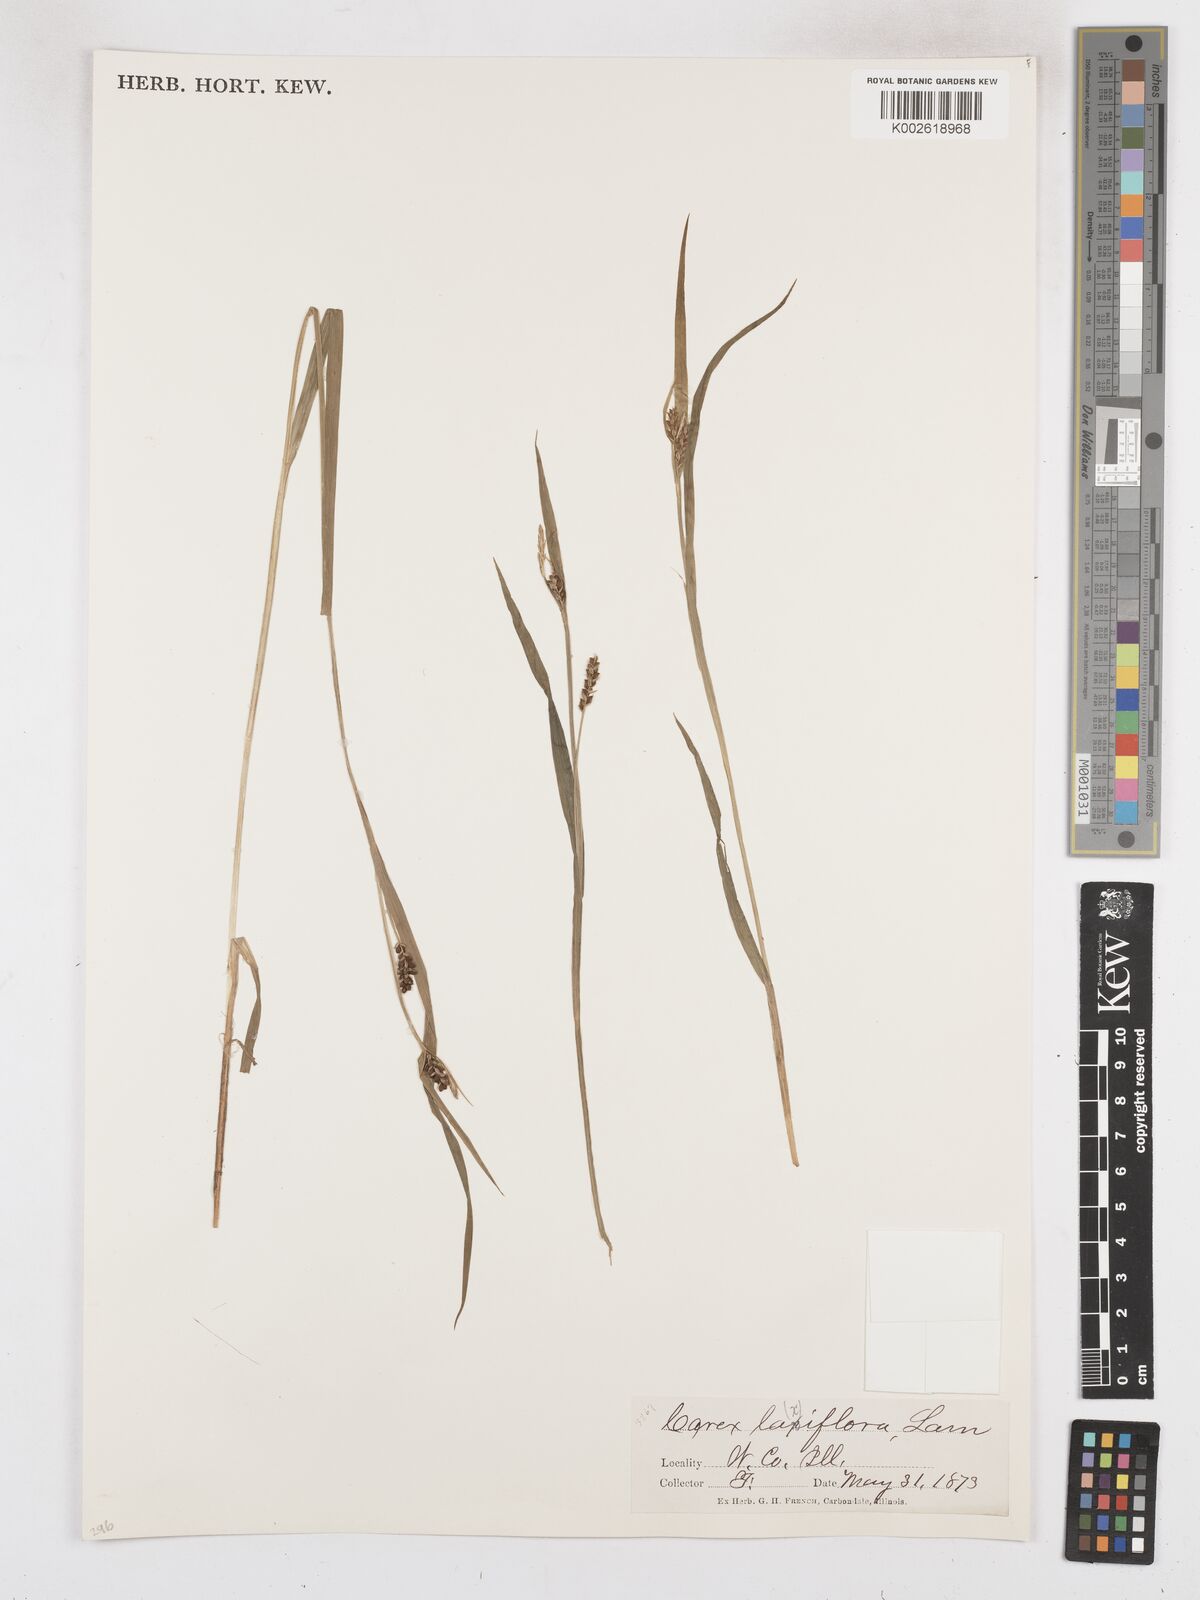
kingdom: Plantae
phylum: Tracheophyta
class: Liliopsida
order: Poales
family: Cyperaceae
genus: Carex
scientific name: Carex laxiflora
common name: Beech wood sedge
